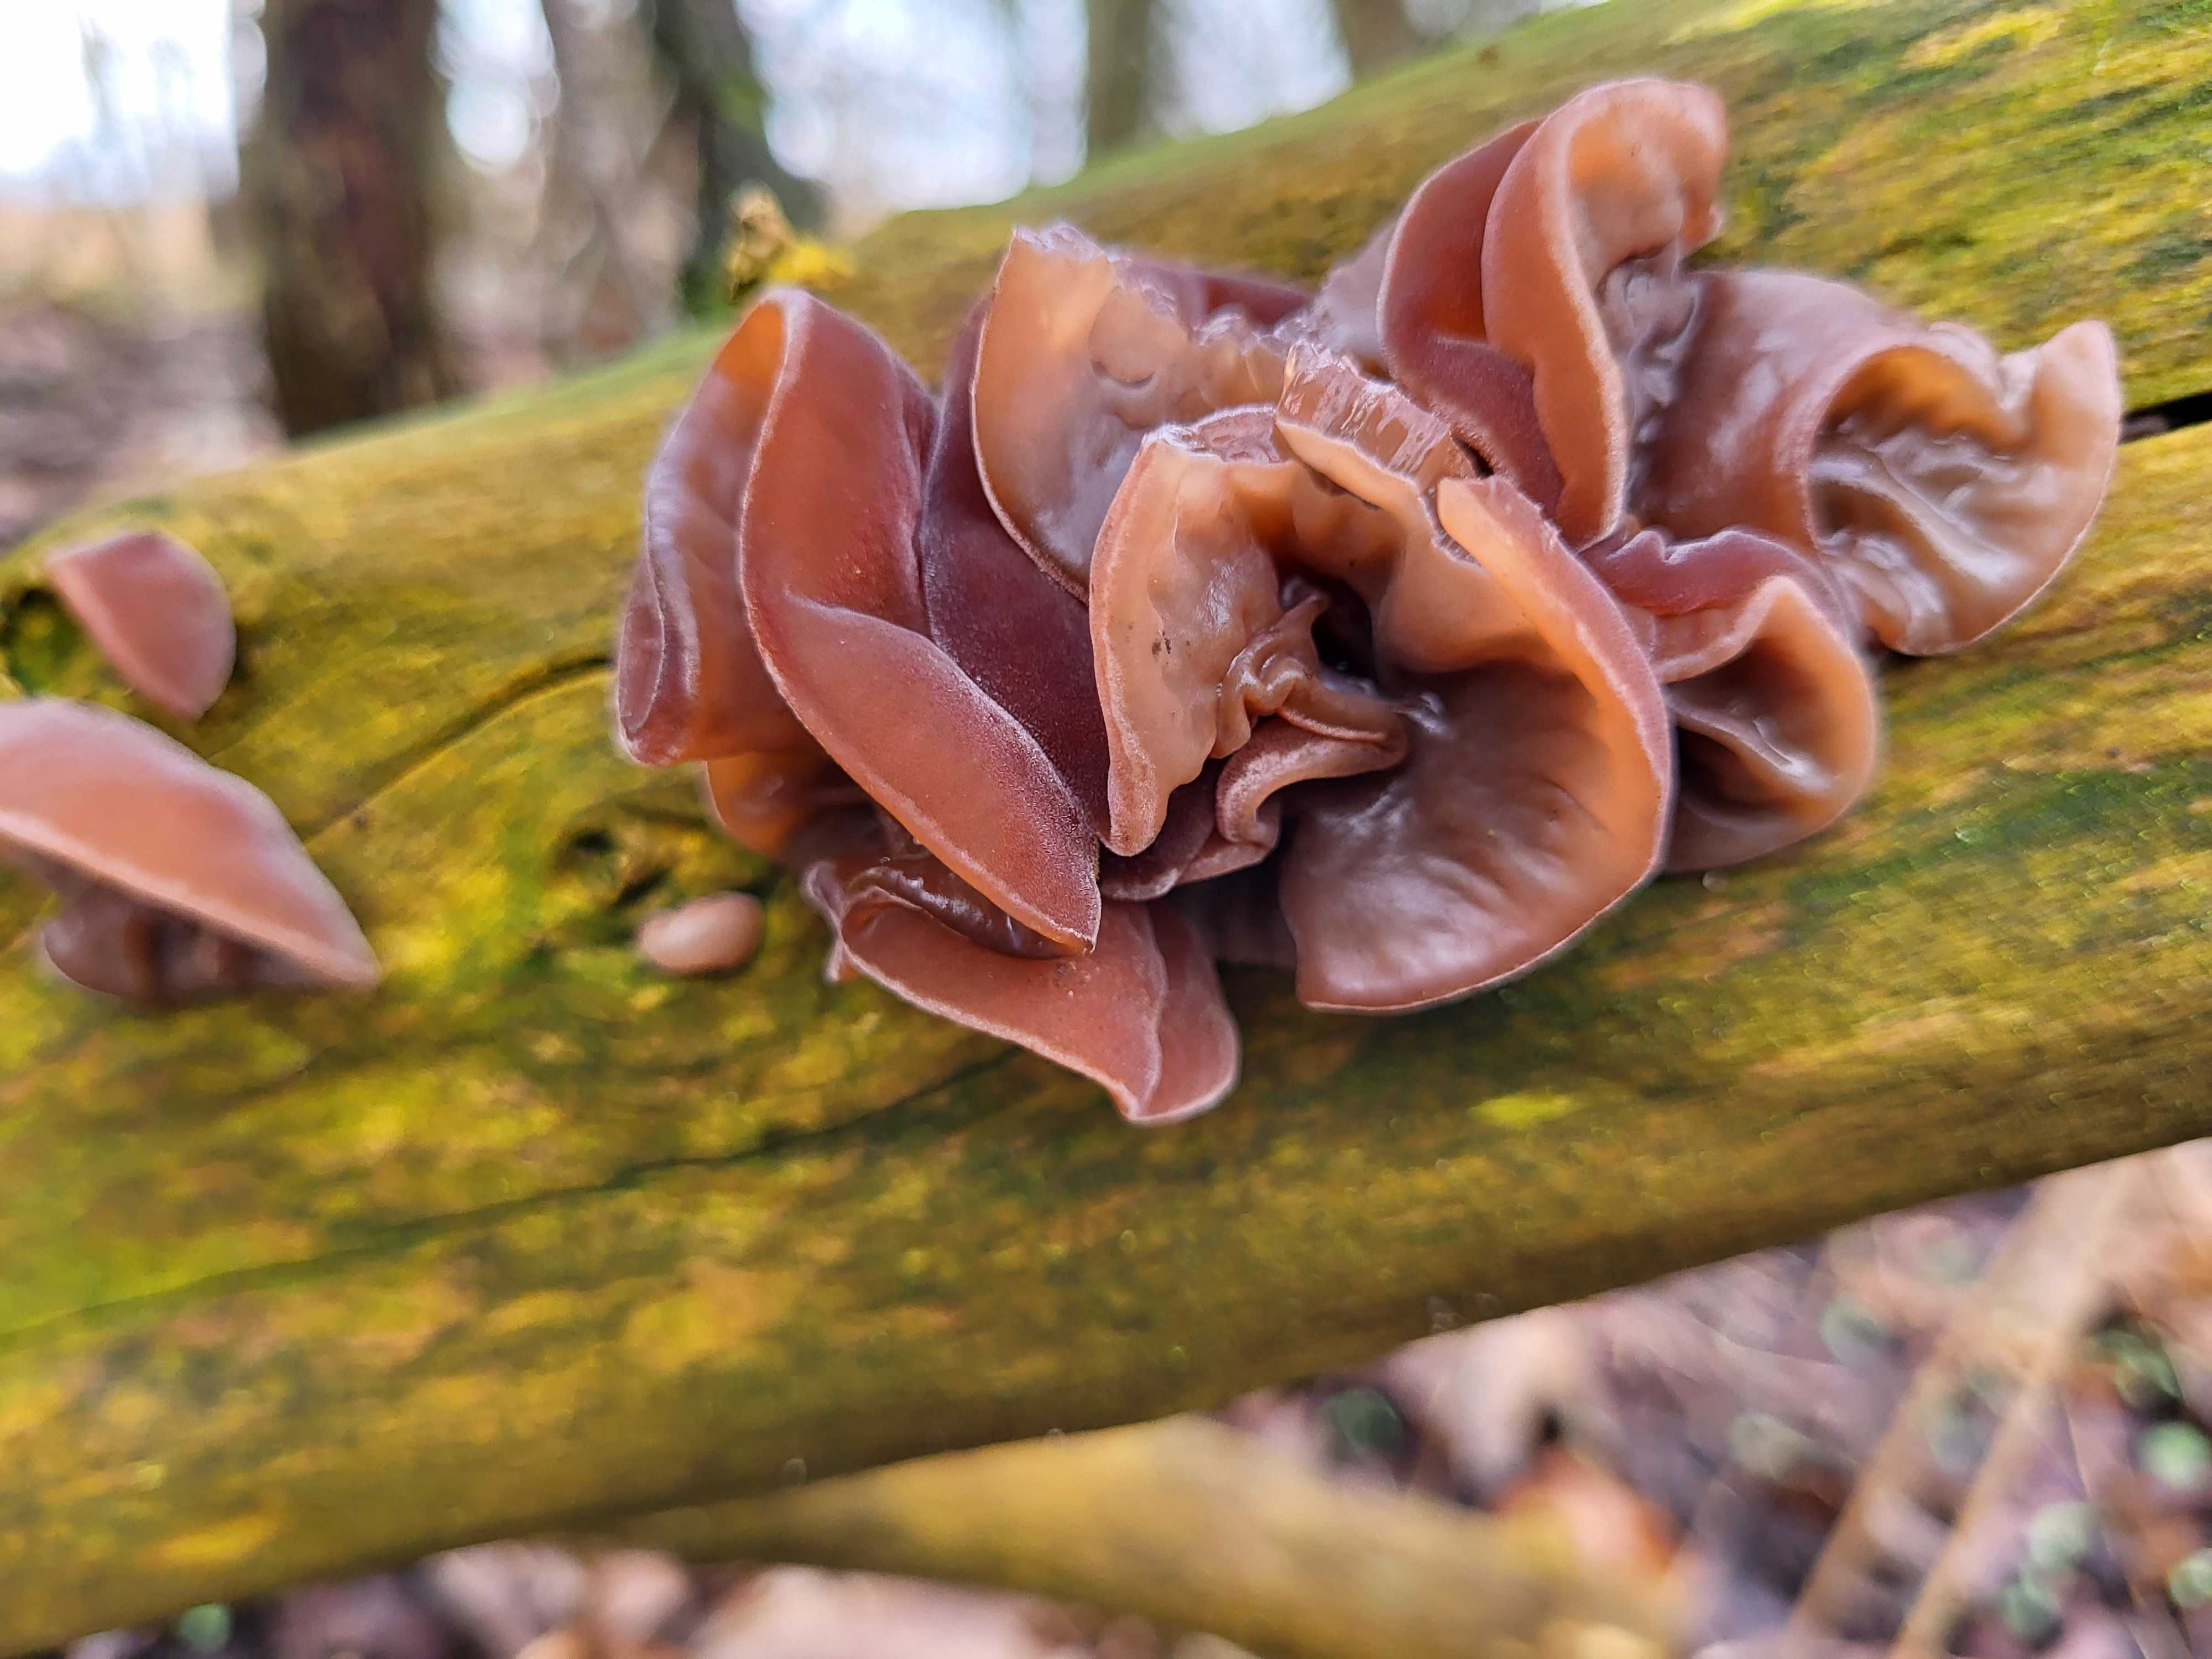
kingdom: Fungi
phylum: Basidiomycota
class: Agaricomycetes
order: Auriculariales
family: Auriculariaceae
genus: Auricularia
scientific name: Auricularia auricula-judae
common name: almindelig judasøre
